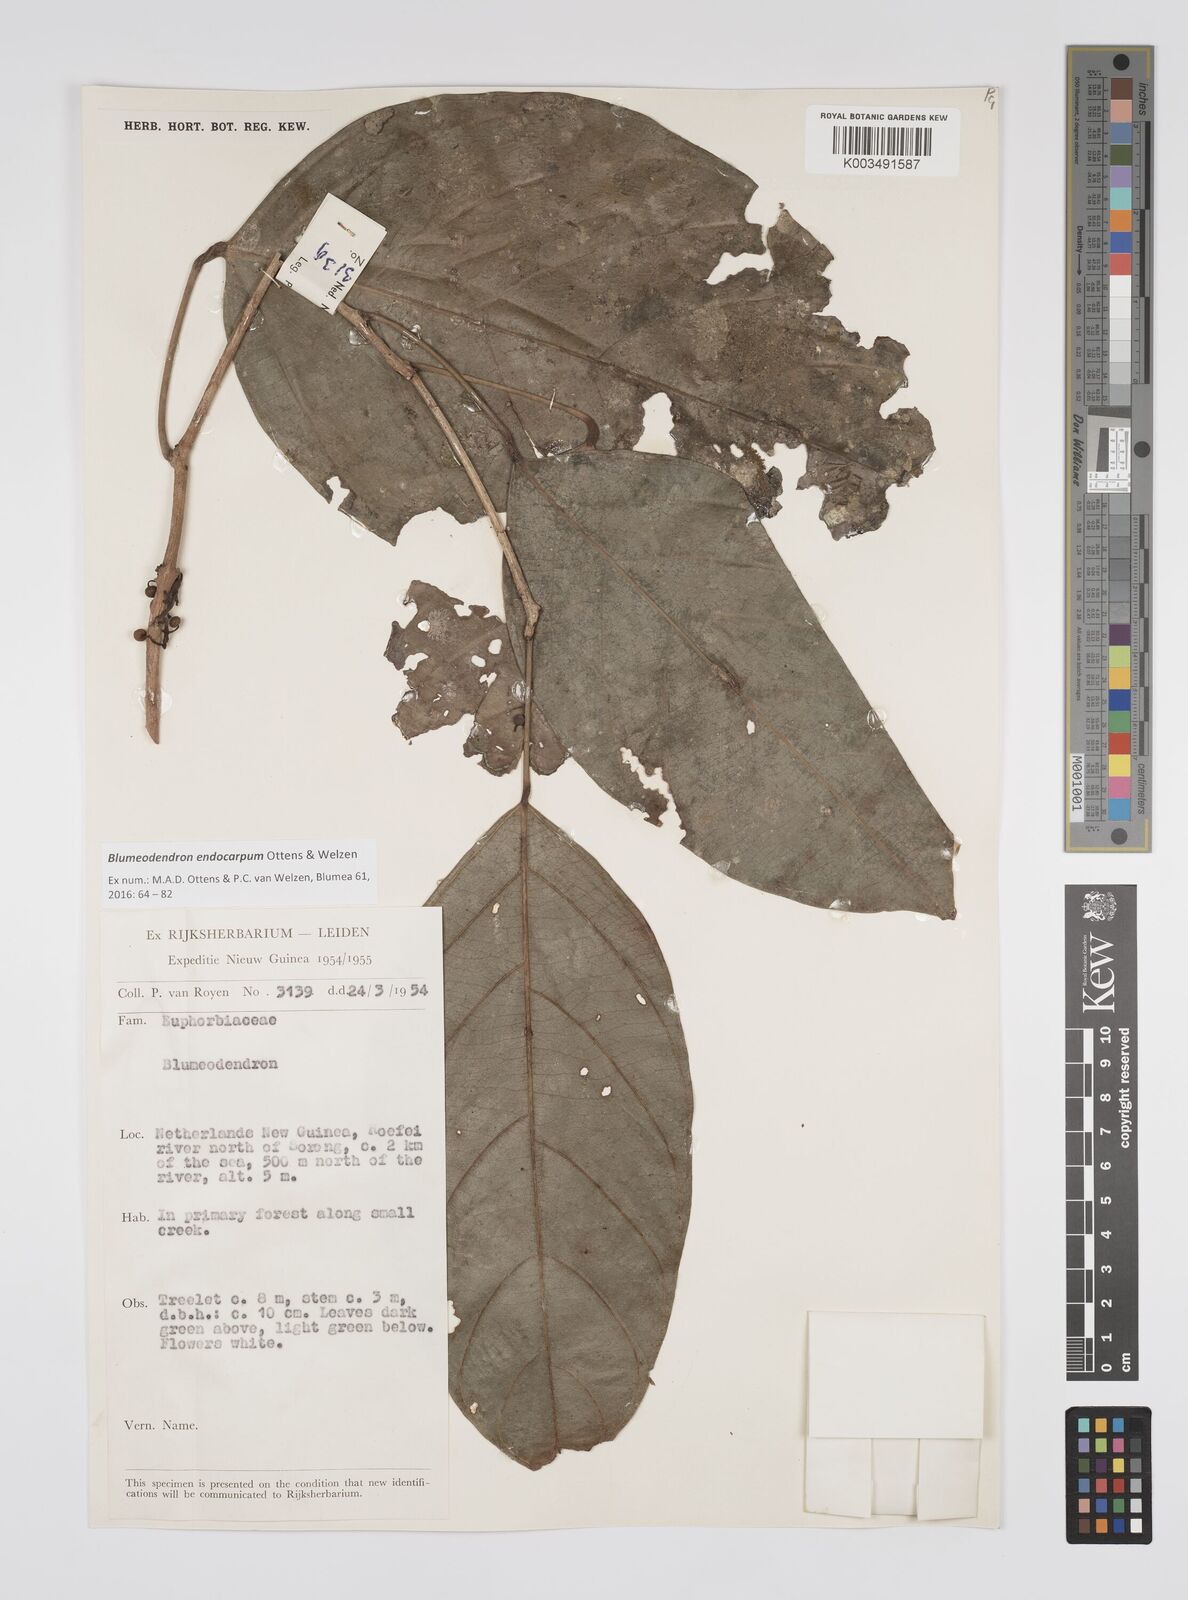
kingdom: Plantae
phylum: Tracheophyta
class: Magnoliopsida
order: Malpighiales
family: Euphorbiaceae
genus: Blumeodendron
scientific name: Blumeodendron endocarpum
